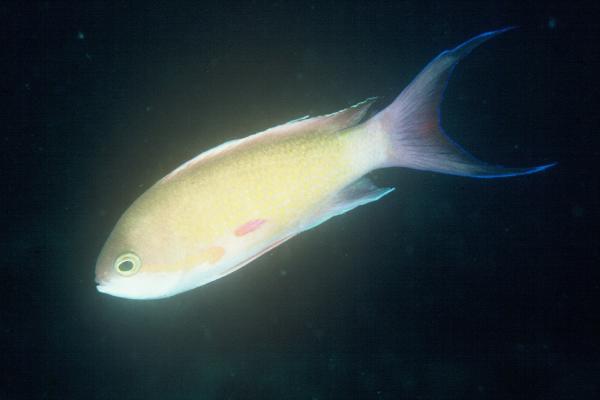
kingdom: Animalia
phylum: Chordata
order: Perciformes
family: Serranidae
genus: Pseudanthias
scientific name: Pseudanthias squamipinnis
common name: Scalefin anthias
